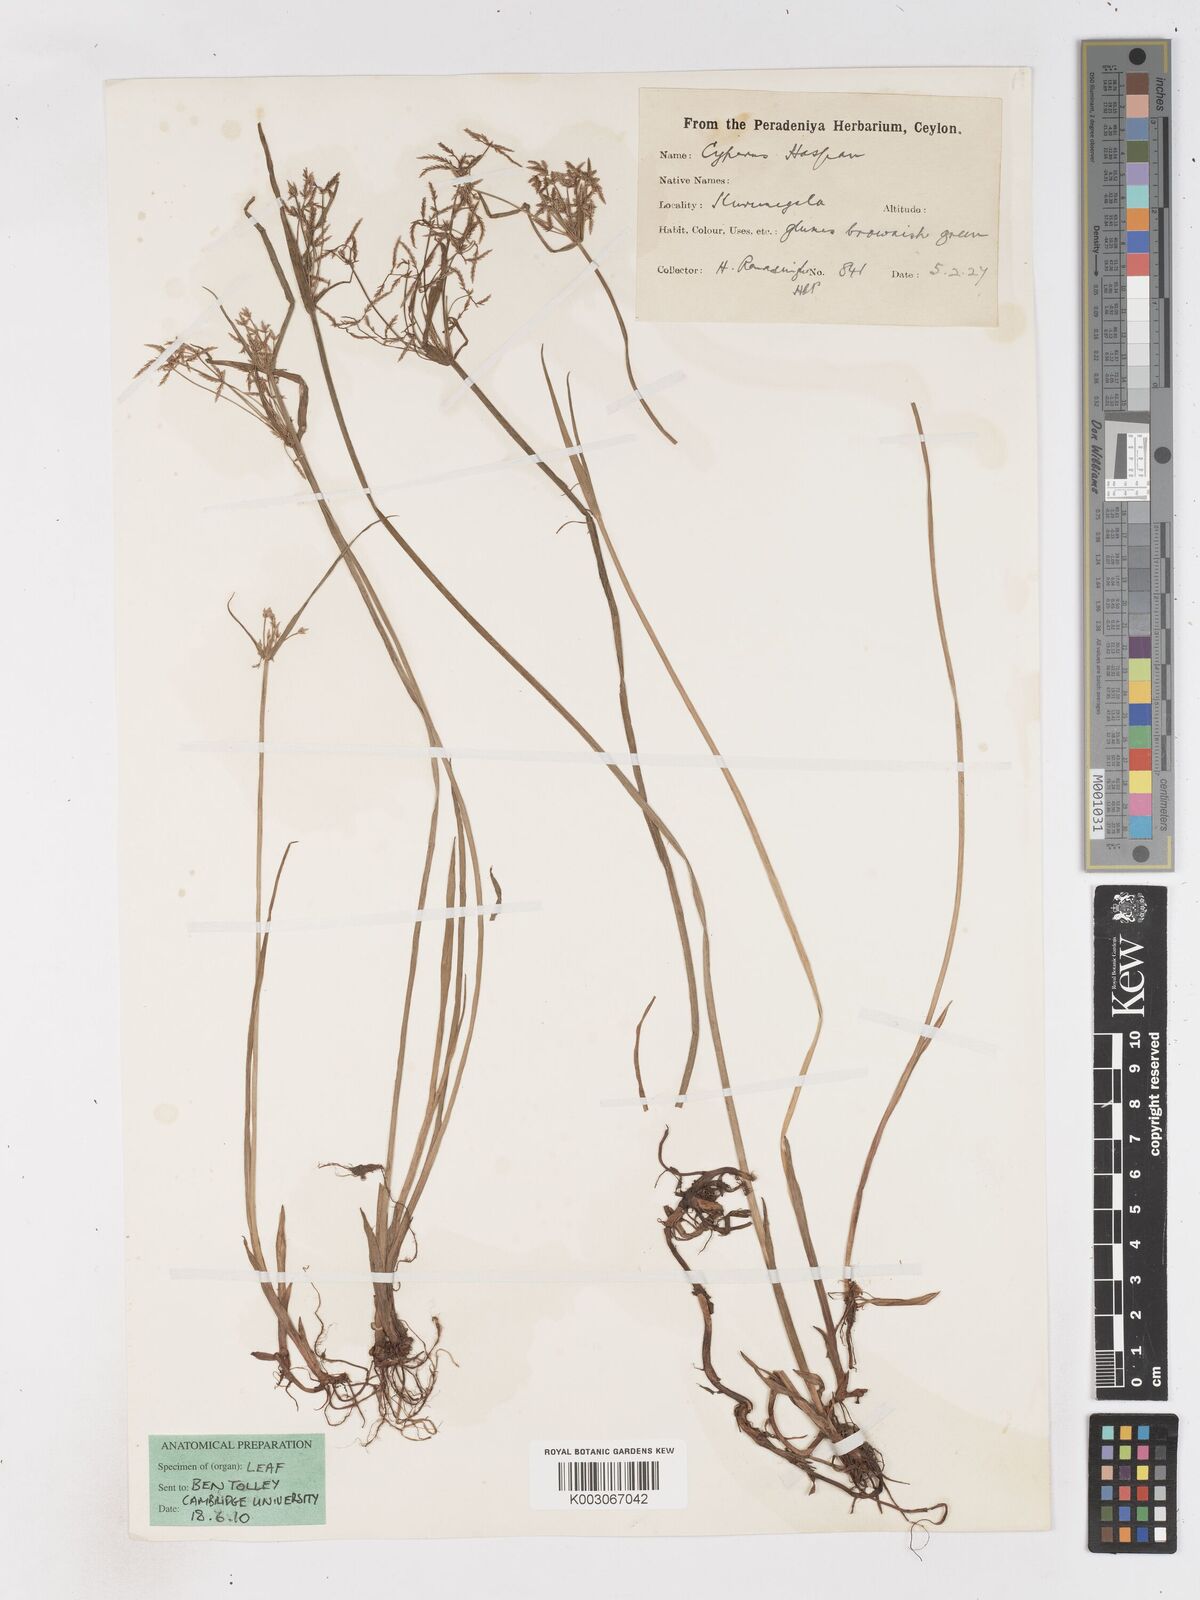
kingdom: Plantae
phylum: Tracheophyta
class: Liliopsida
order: Poales
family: Cyperaceae
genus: Cyperus
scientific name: Cyperus haspan
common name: Haspan flatsedge
